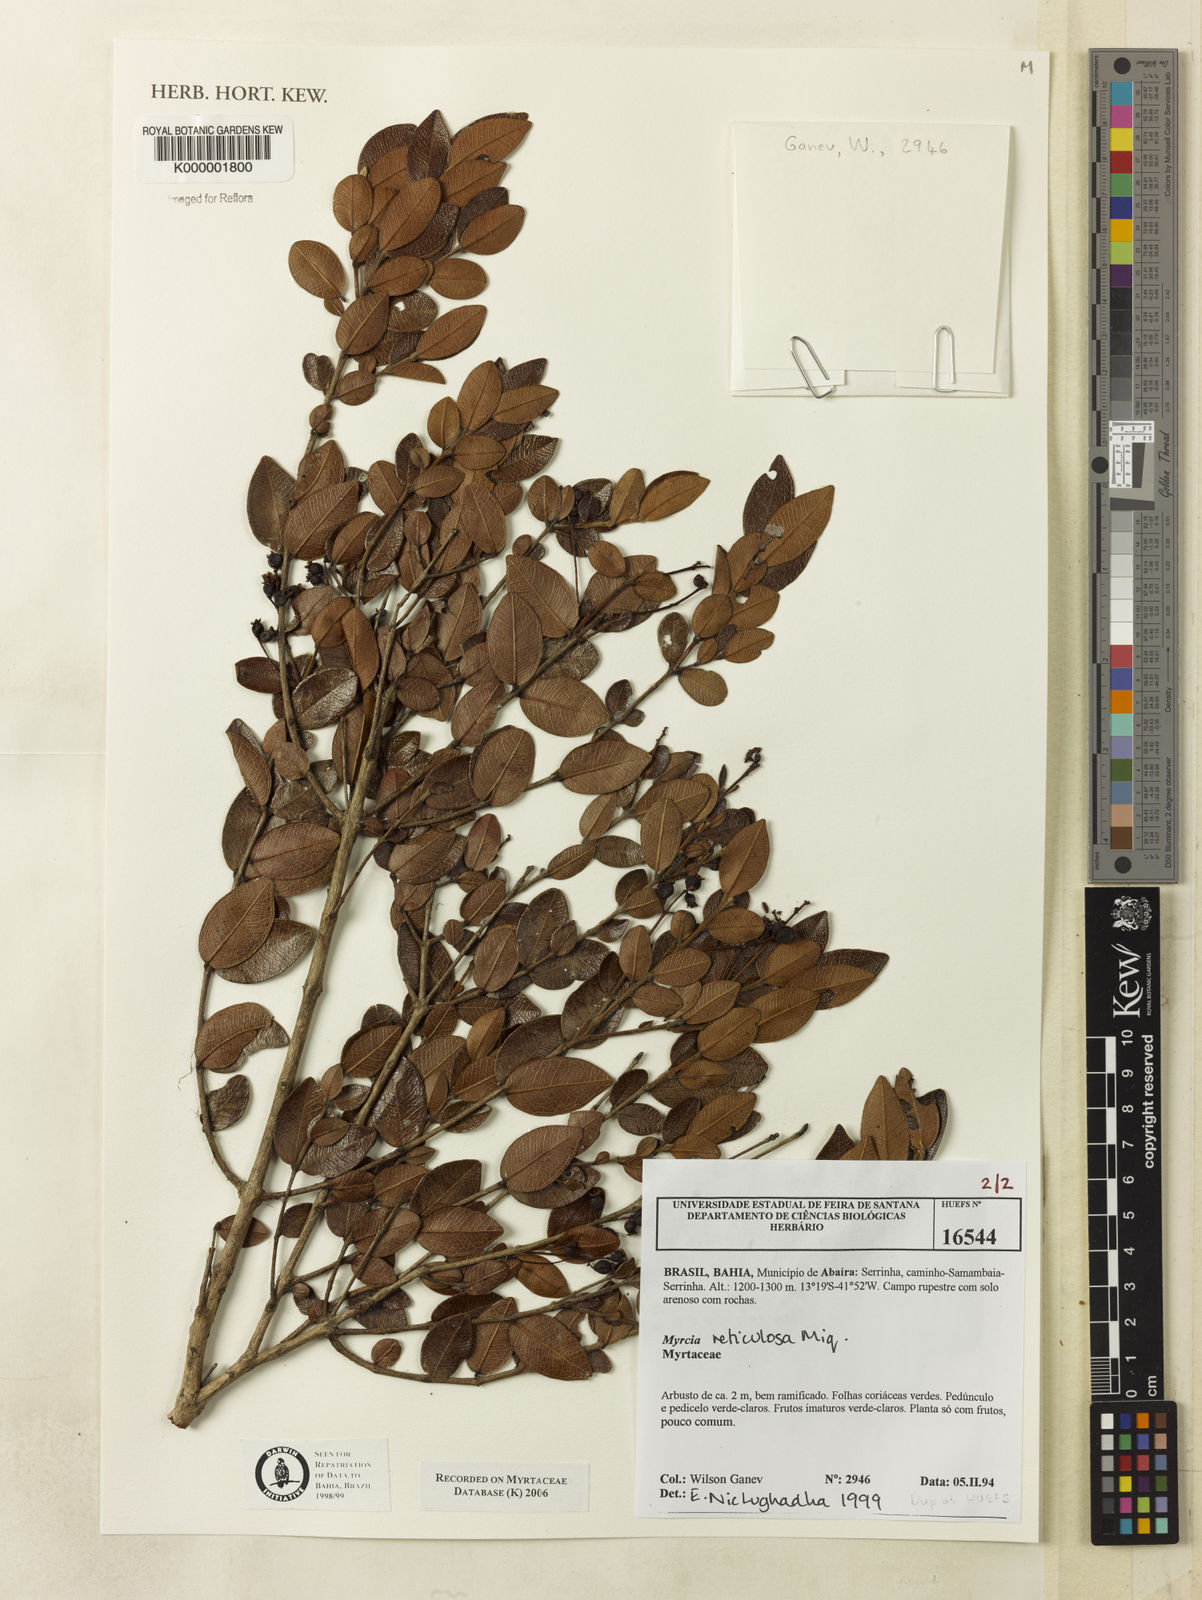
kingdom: Plantae
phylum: Tracheophyta
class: Magnoliopsida
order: Myrtales
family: Myrtaceae
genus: Myrcia
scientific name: Myrcia reticulosa
